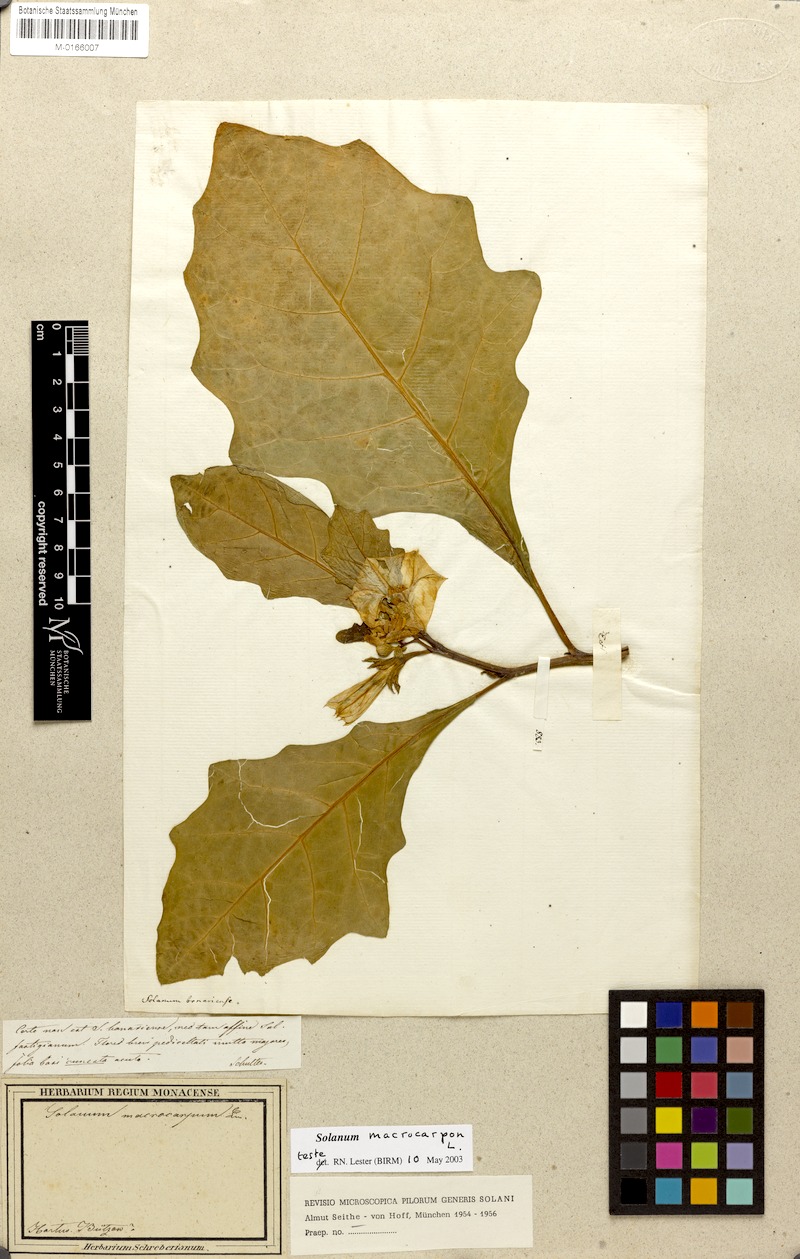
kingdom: Plantae
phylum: Tracheophyta
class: Magnoliopsida
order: Solanales
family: Solanaceae
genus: Solanum
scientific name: Solanum macrocarpon
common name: African eggplant
